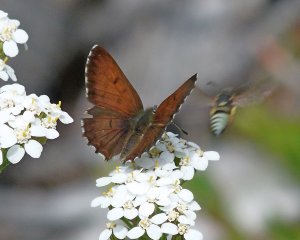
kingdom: Animalia
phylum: Arthropoda
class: Insecta
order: Lepidoptera
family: Lycaenidae
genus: Lycaena
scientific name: Lycaena mariposa
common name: Mariposa Copper
